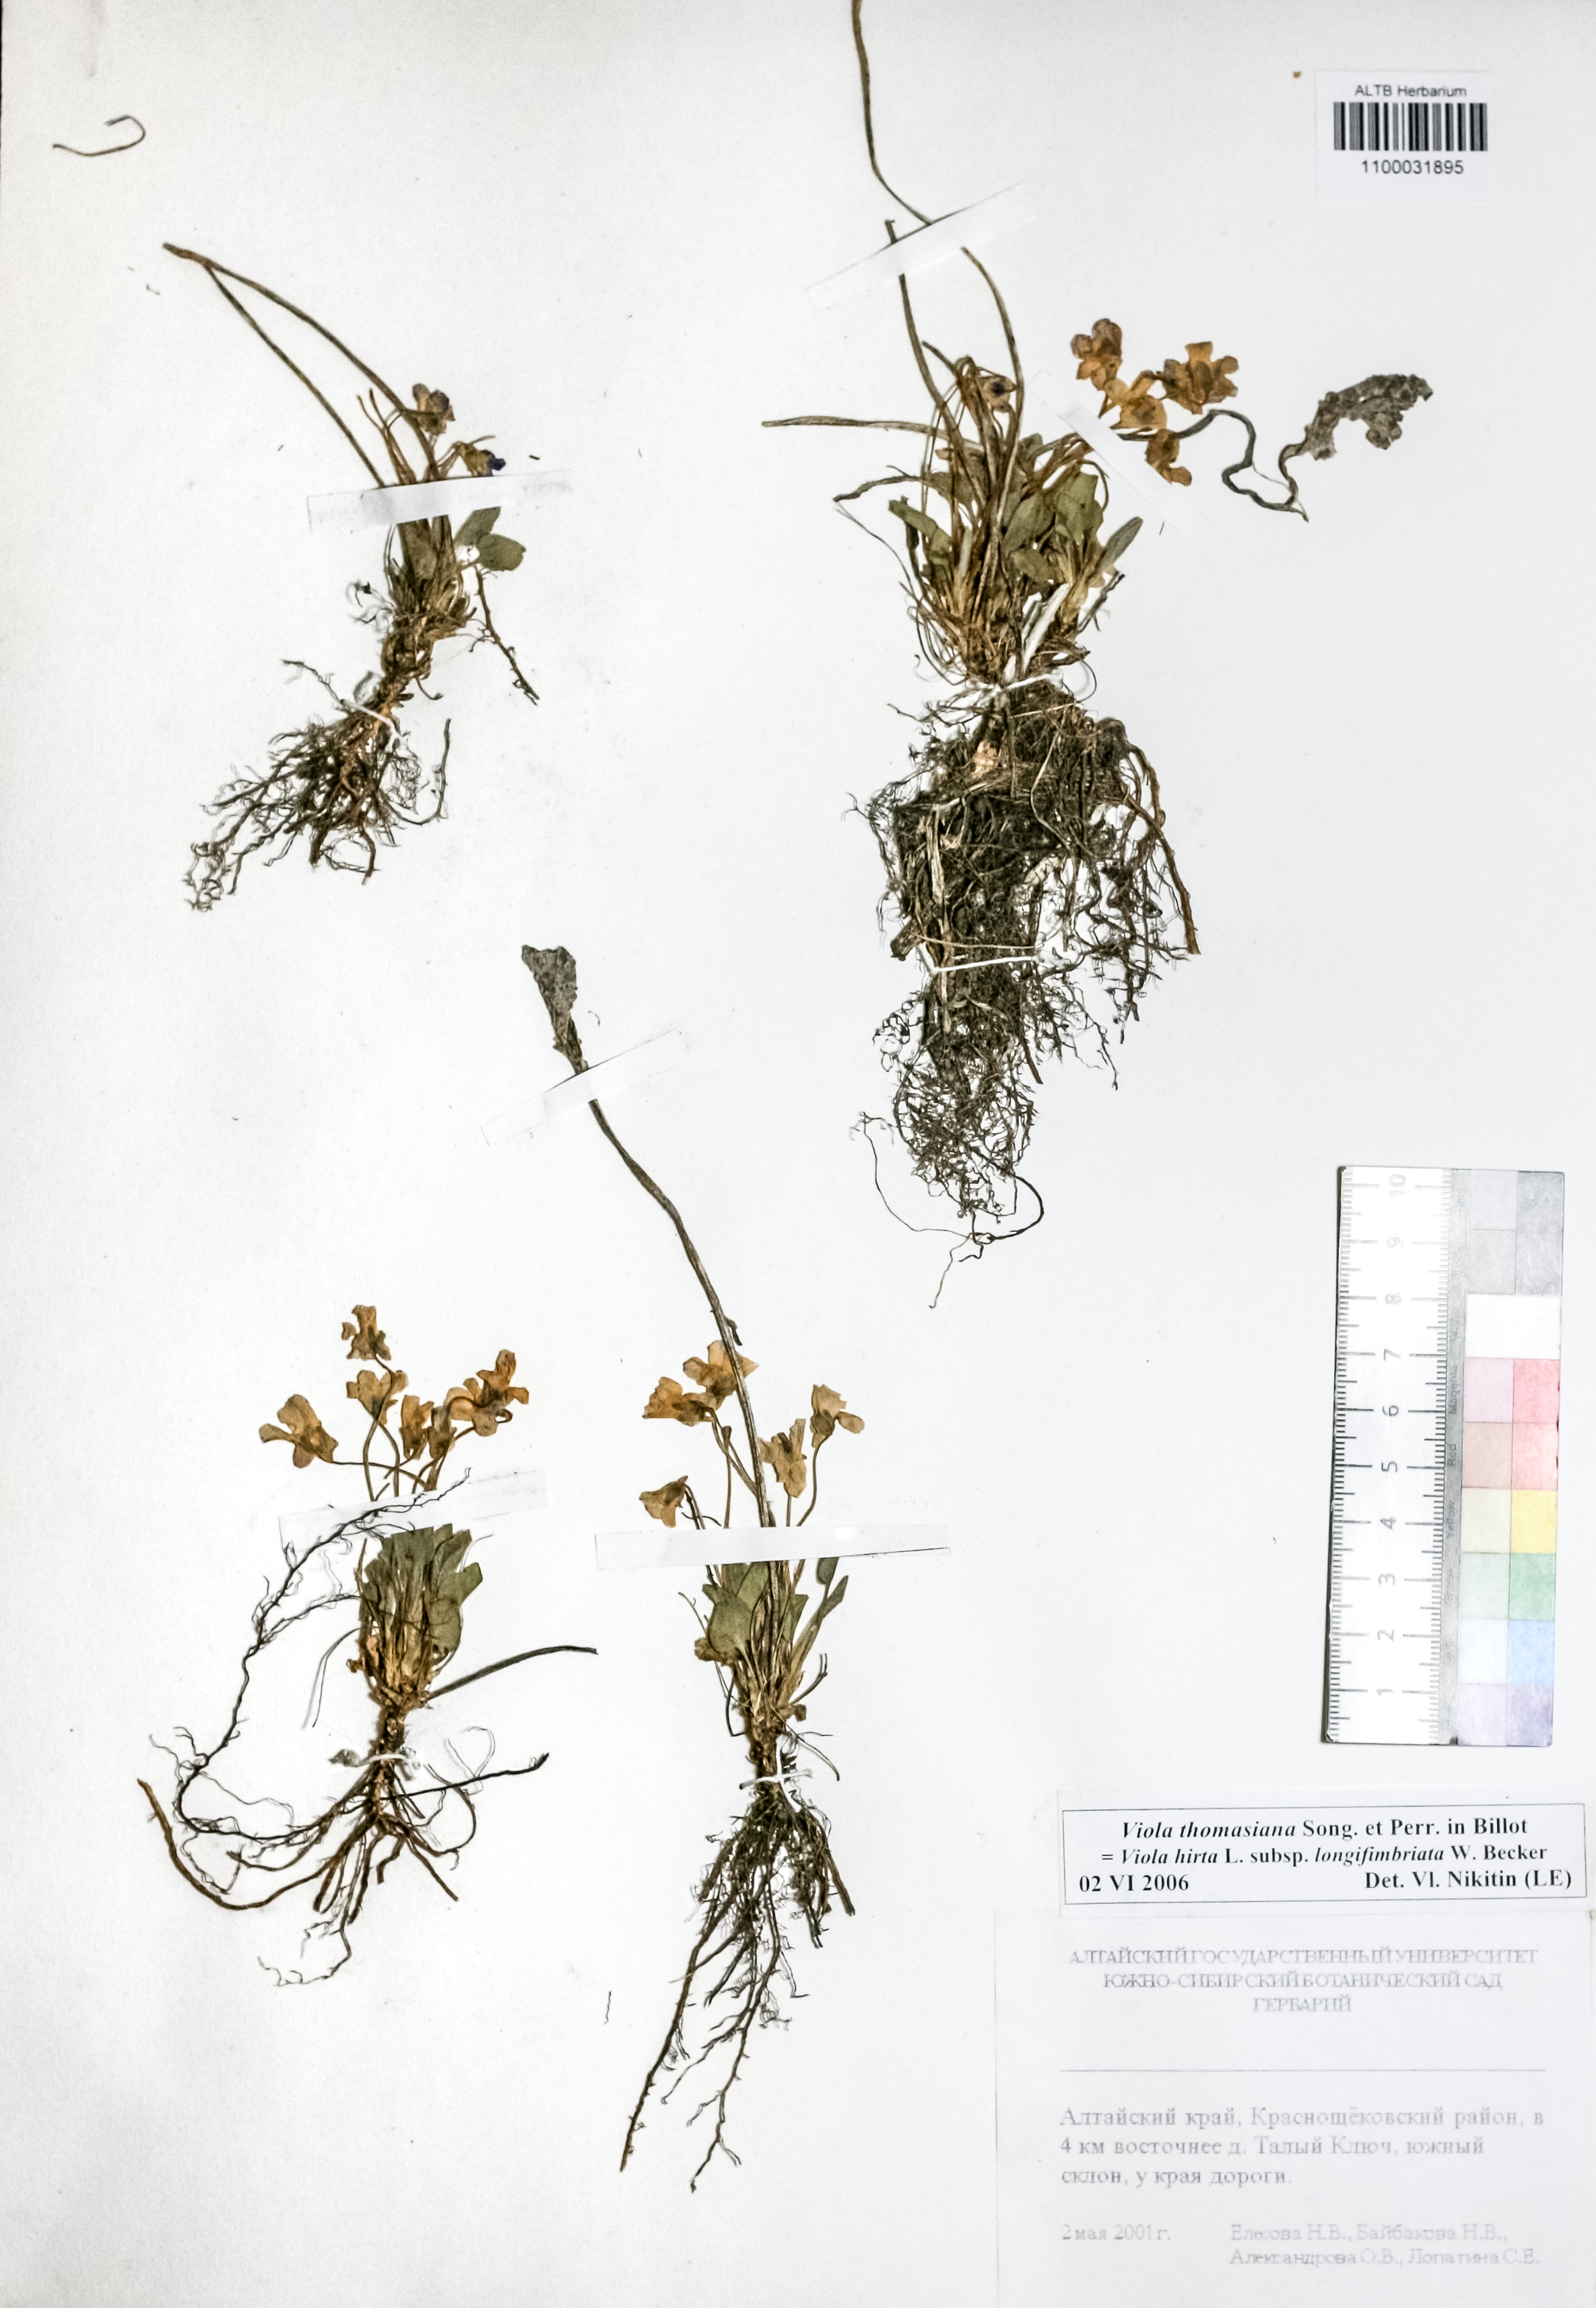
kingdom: Plantae
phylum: Tracheophyta
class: Magnoliopsida
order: Malpighiales
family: Violaceae
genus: Viola
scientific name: Viola thomasiana
